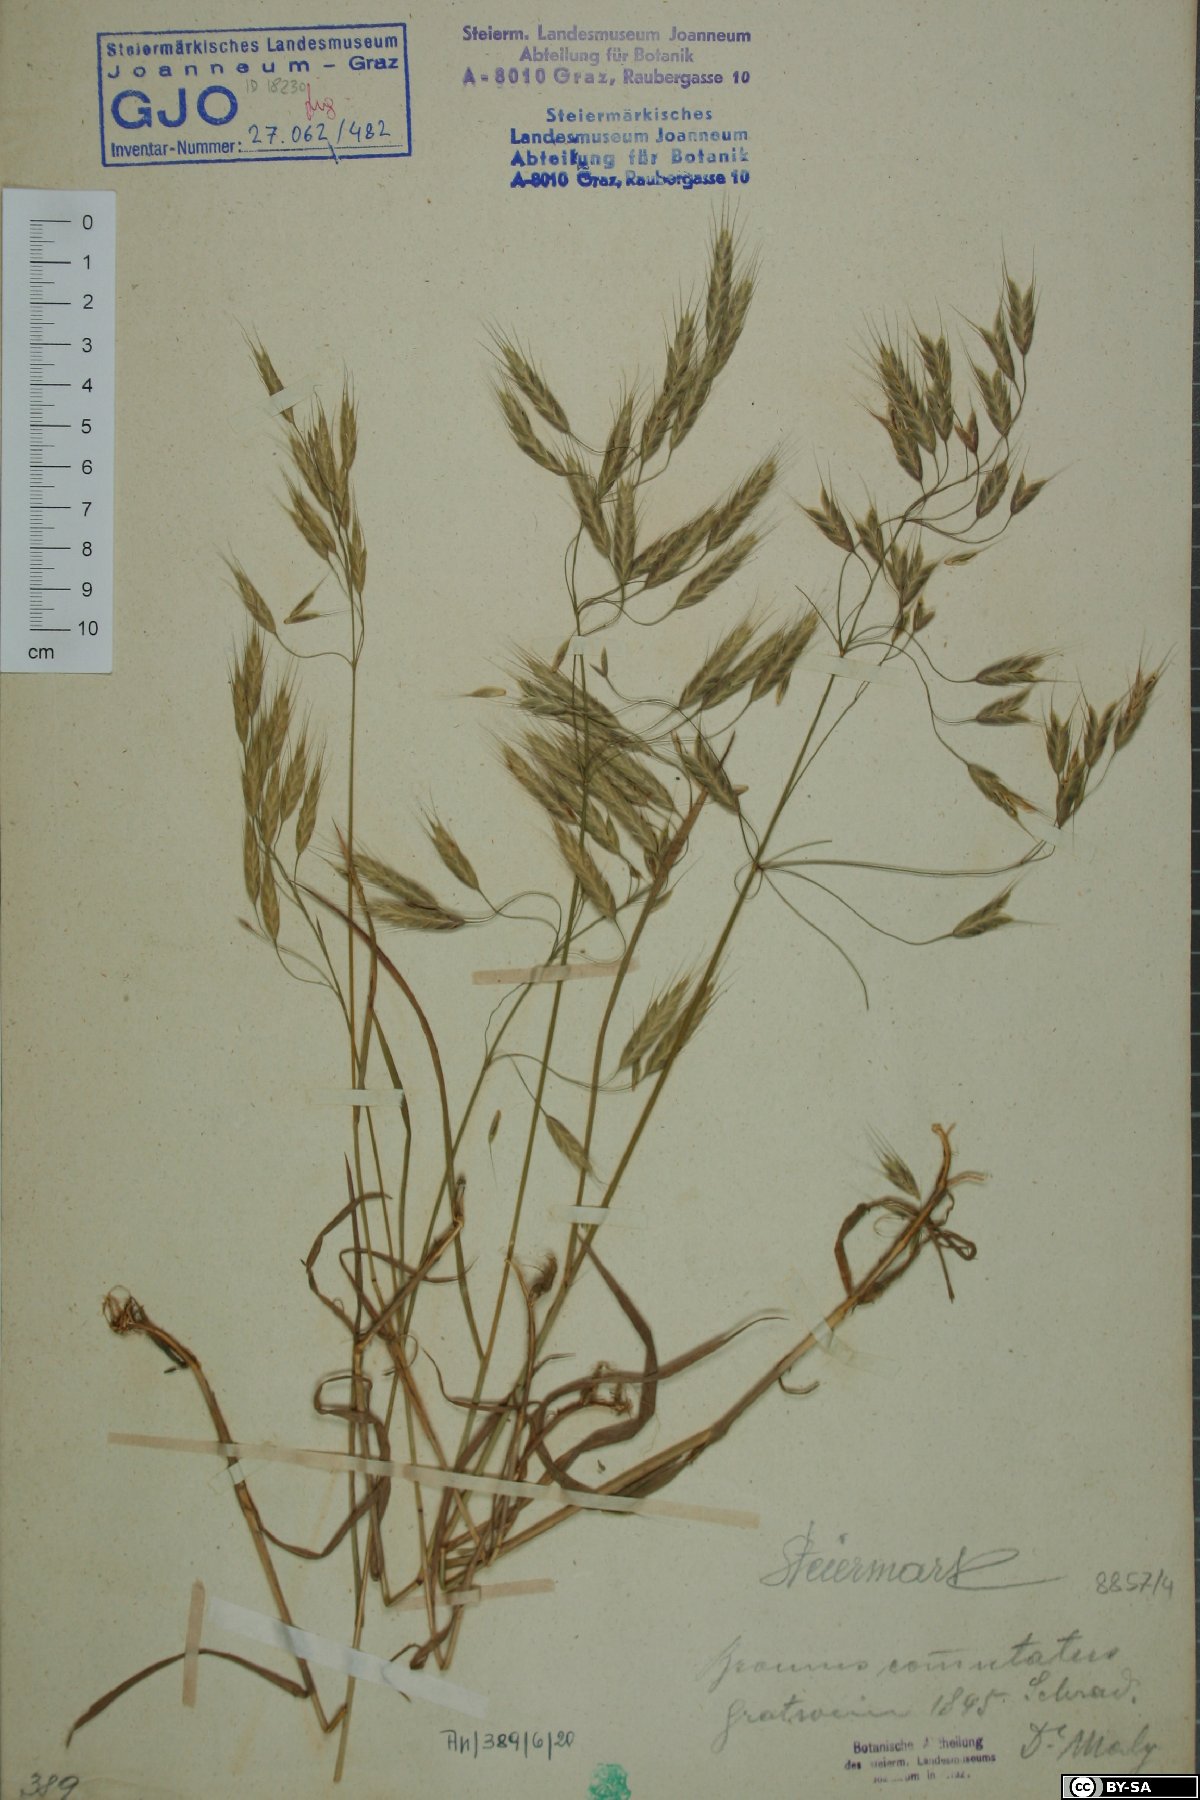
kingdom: Plantae
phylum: Tracheophyta
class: Liliopsida
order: Poales
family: Poaceae
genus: Bromus
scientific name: Bromus commutatus
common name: Meadow brome
